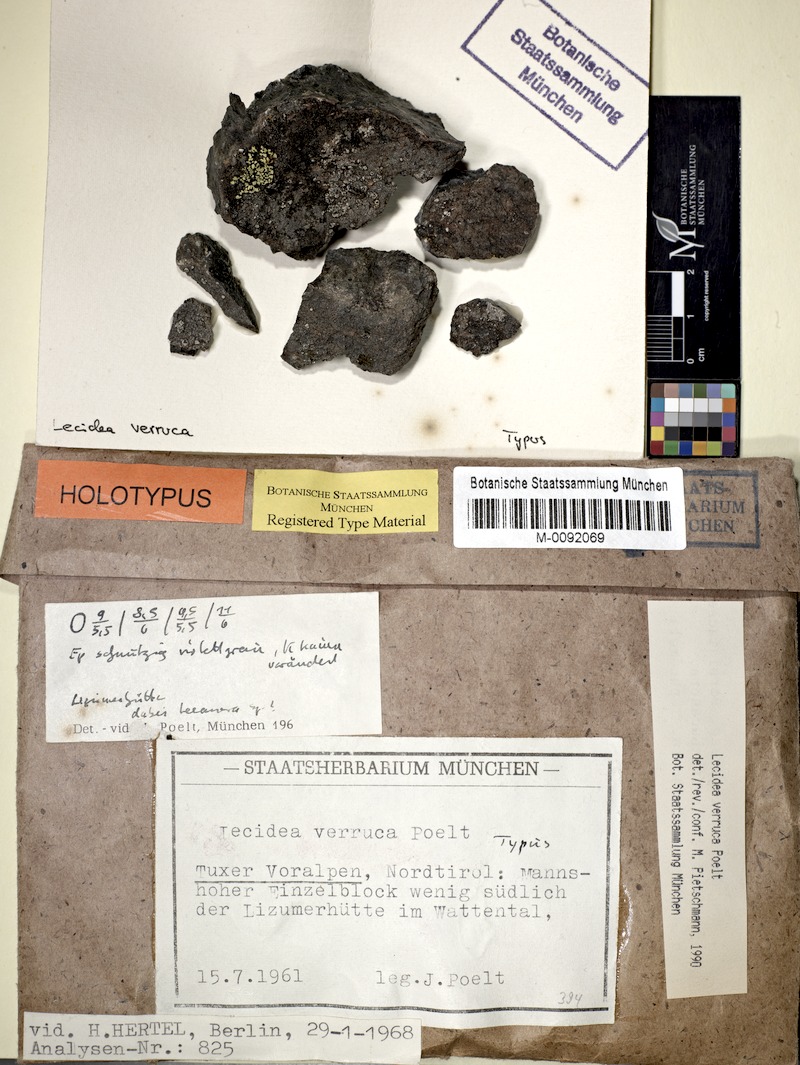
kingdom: Fungi
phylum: Ascomycota
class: Lecanoromycetes
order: Lecideales
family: Lecideaceae
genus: Lecidea
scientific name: Lecidea verruca
